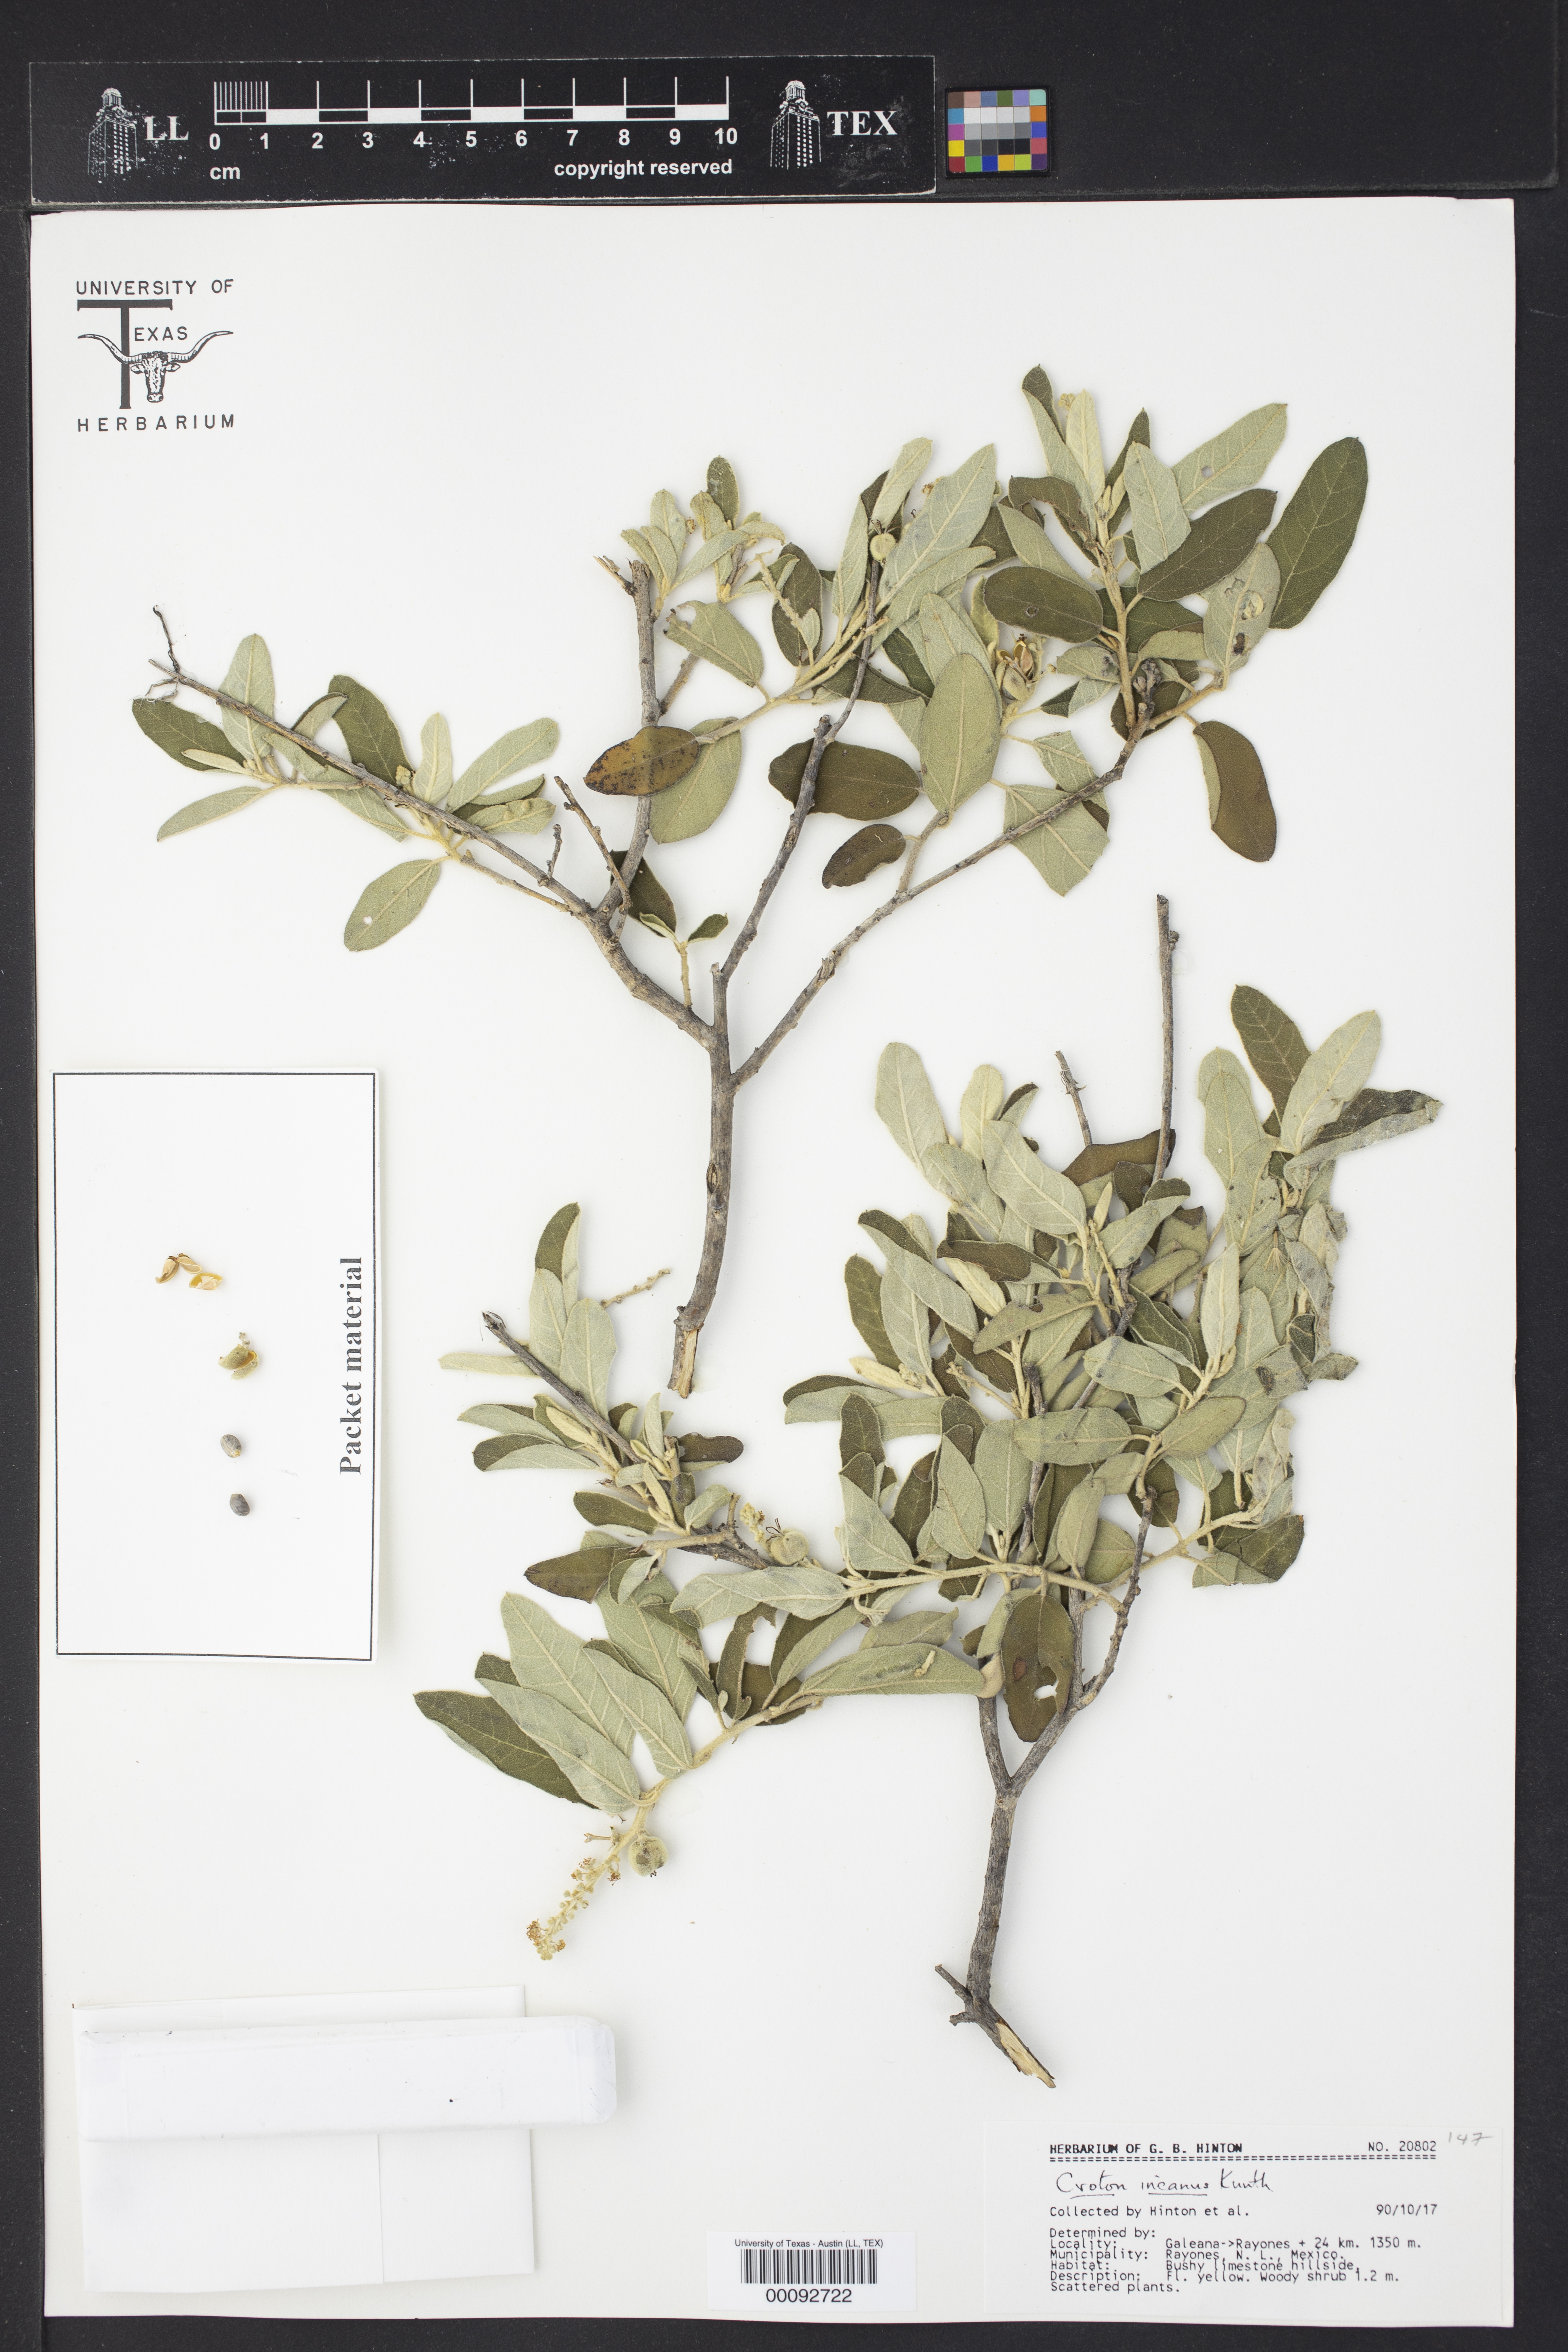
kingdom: Plantae
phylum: Tracheophyta
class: Magnoliopsida
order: Malpighiales
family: Euphorbiaceae
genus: Croton
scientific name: Croton incanus
